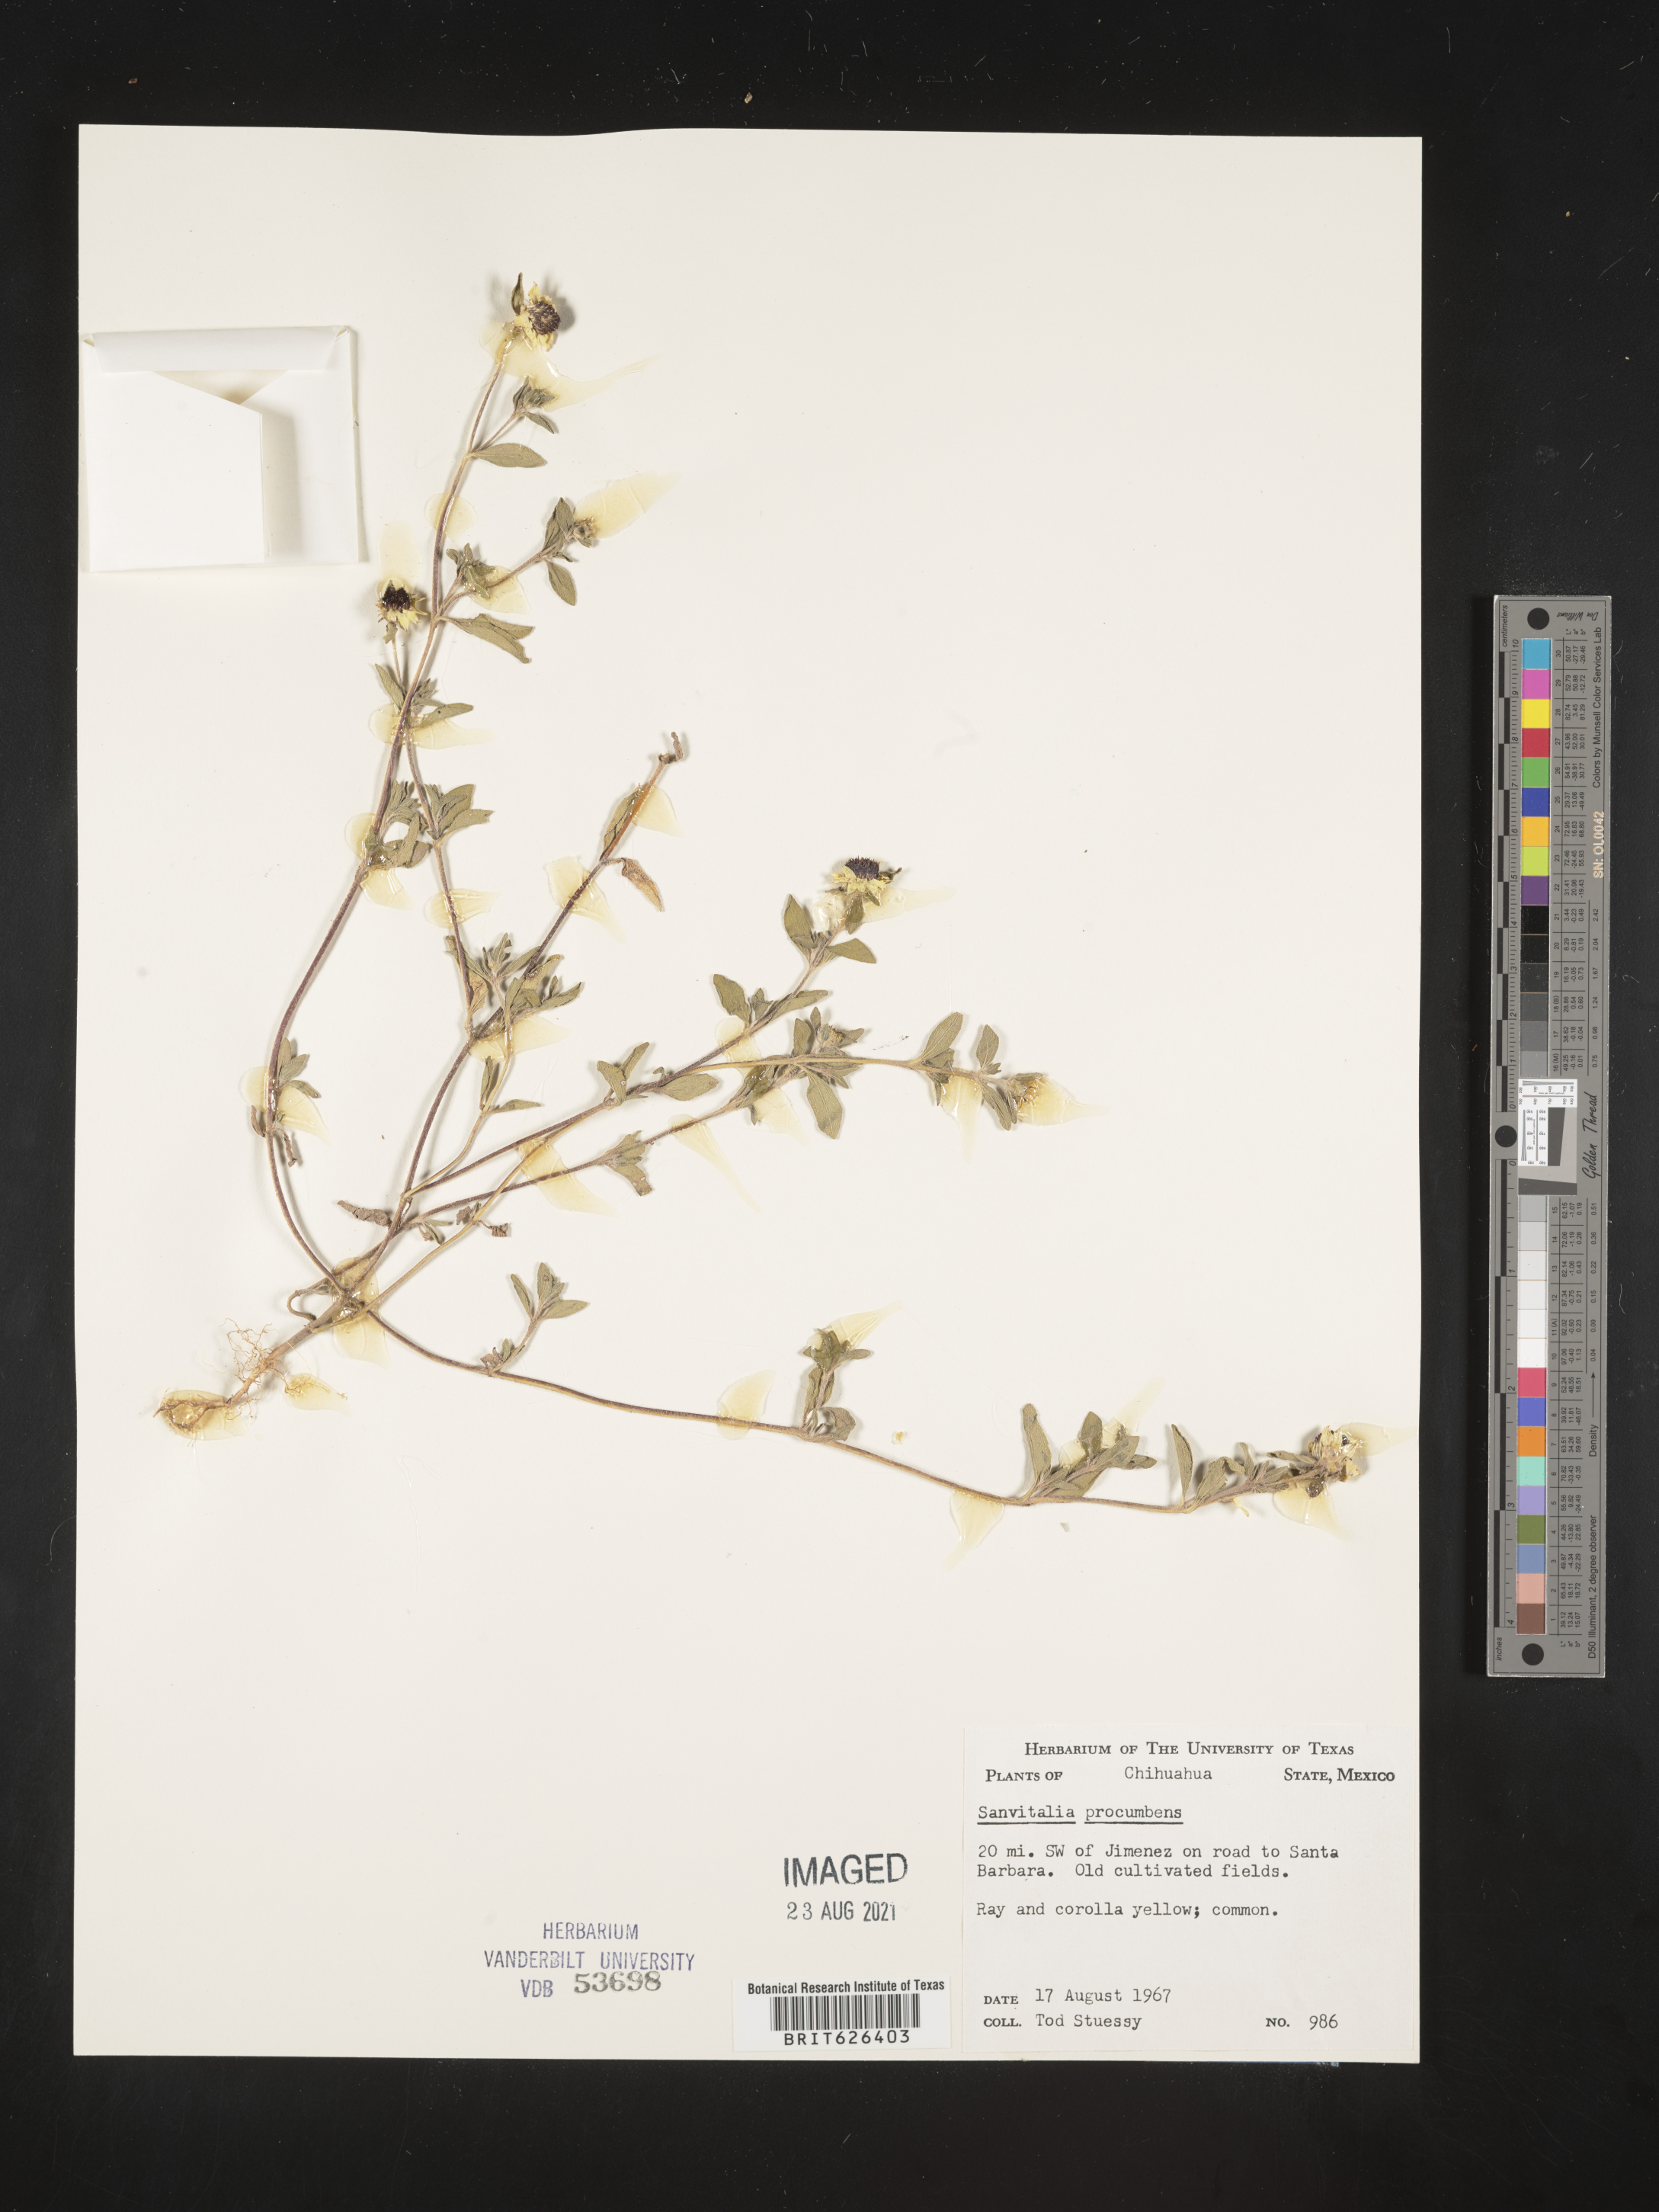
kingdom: Plantae
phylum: Tracheophyta
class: Magnoliopsida
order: Asterales
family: Asteraceae
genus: Sanvitalia
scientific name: Sanvitalia
